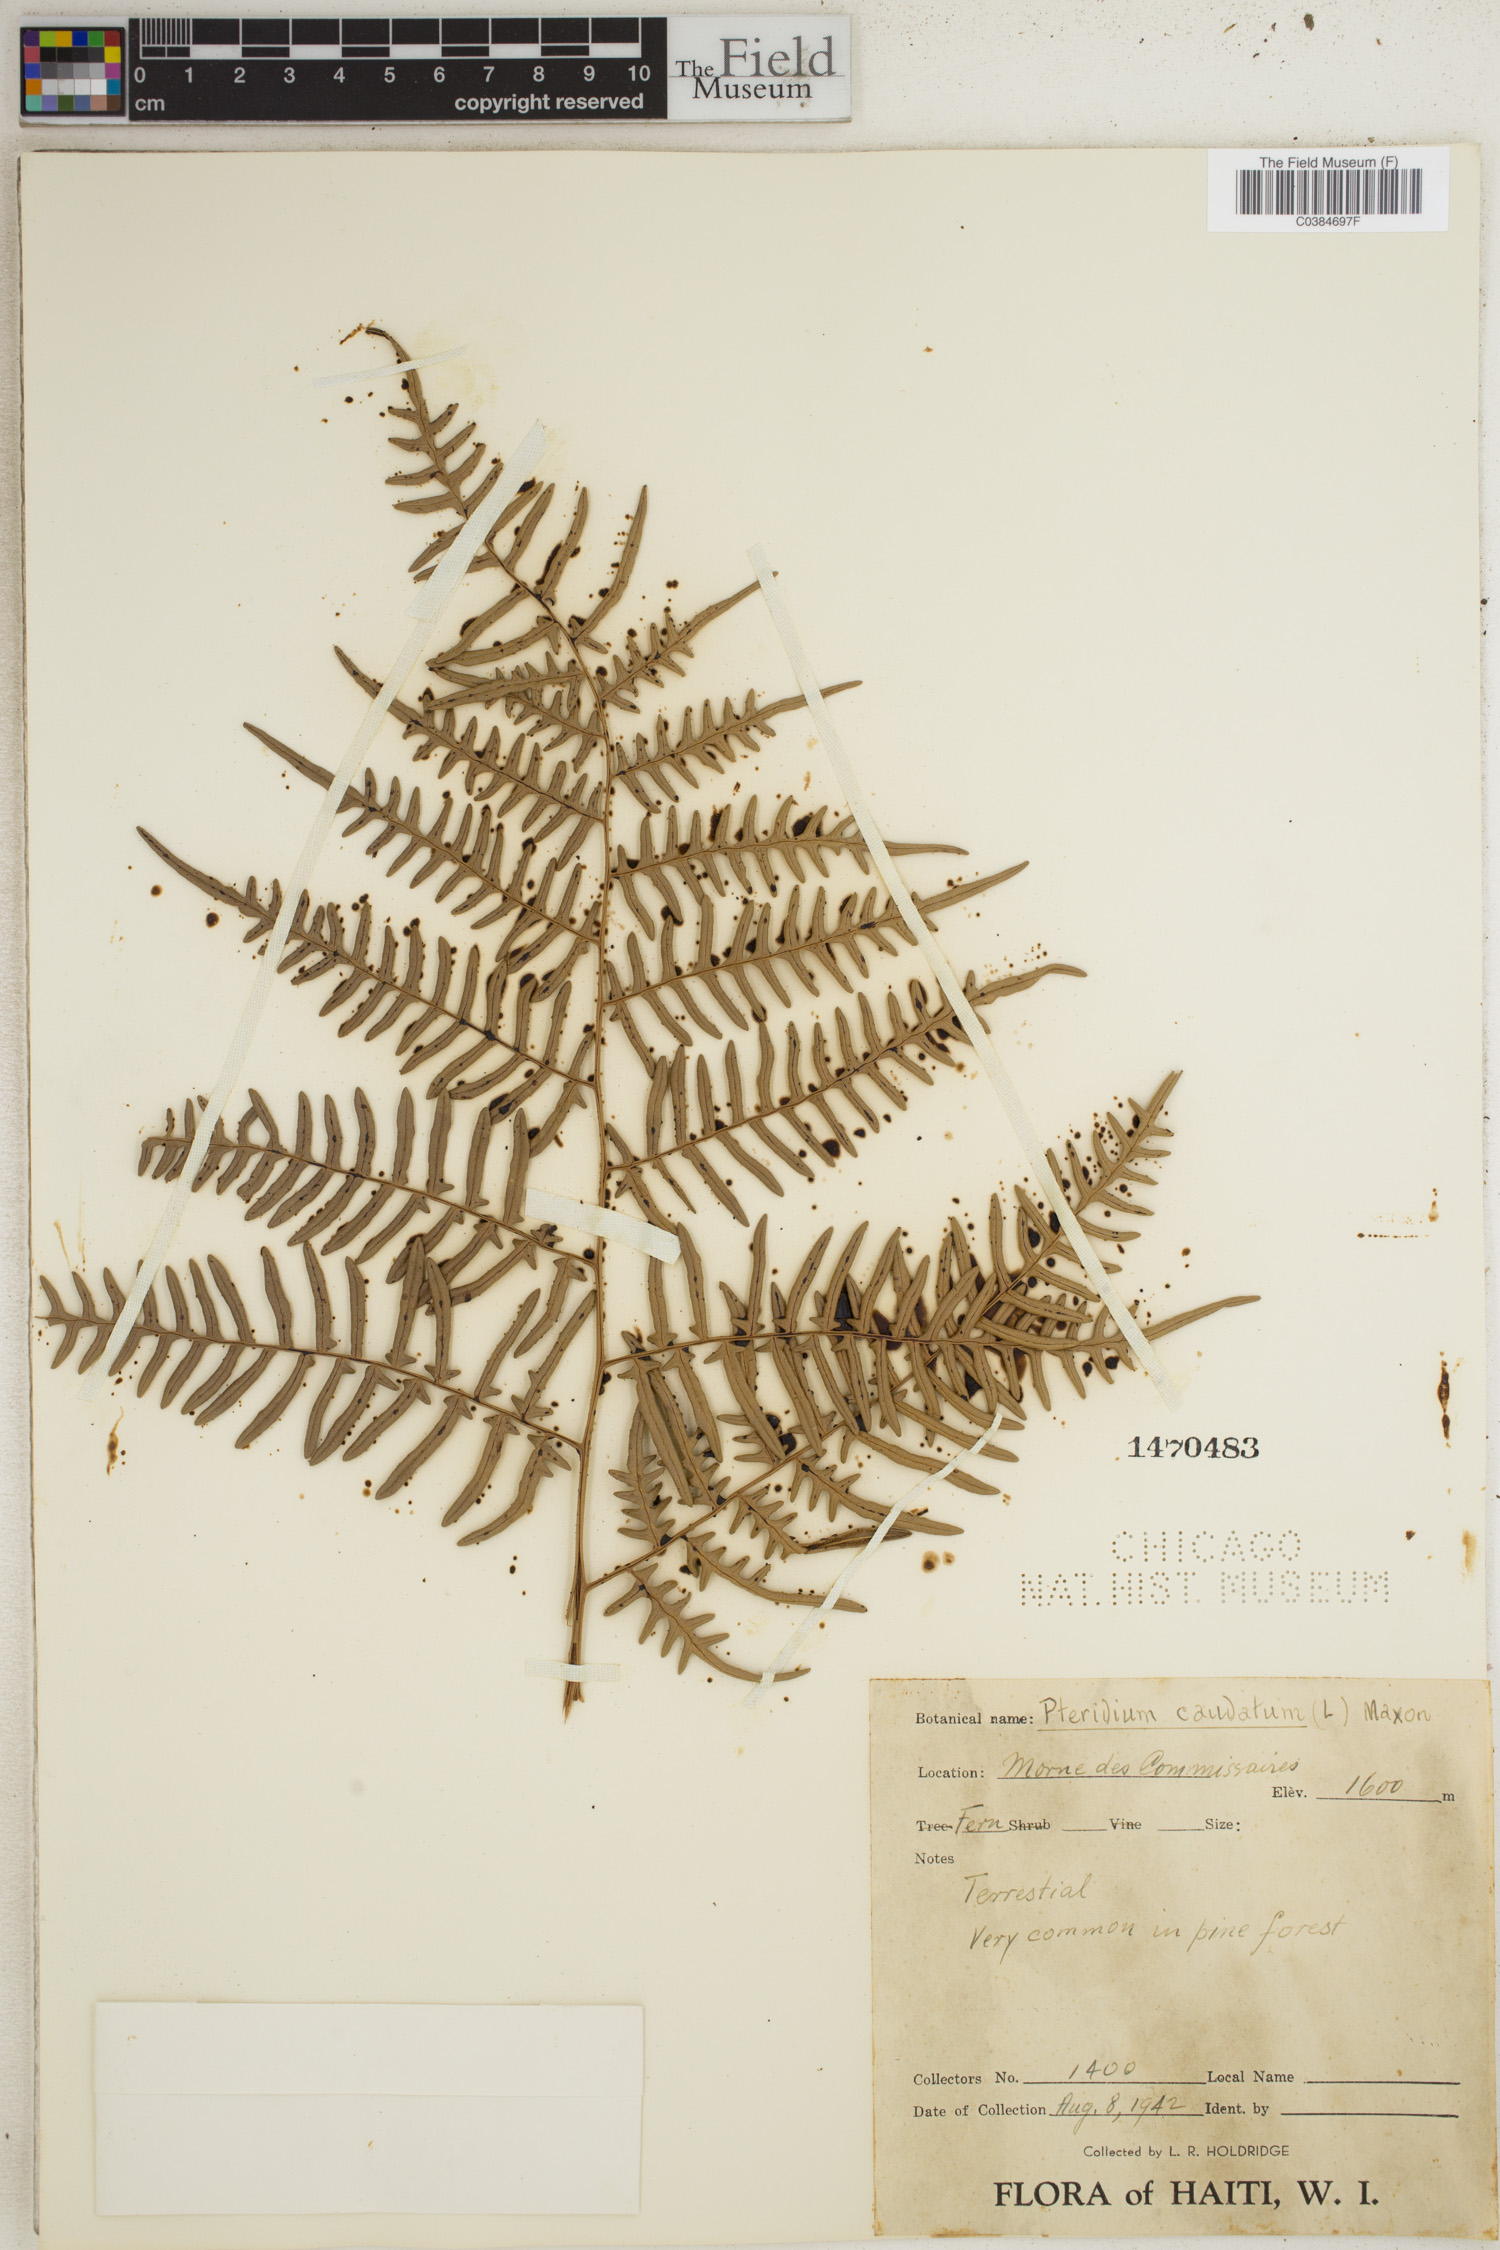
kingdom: Plantae
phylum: Tracheophyta
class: Polypodiopsida
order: Polypodiales
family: Dennstaedtiaceae
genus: Pteridium
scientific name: Pteridium caudatum
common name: Southern bracken fern
